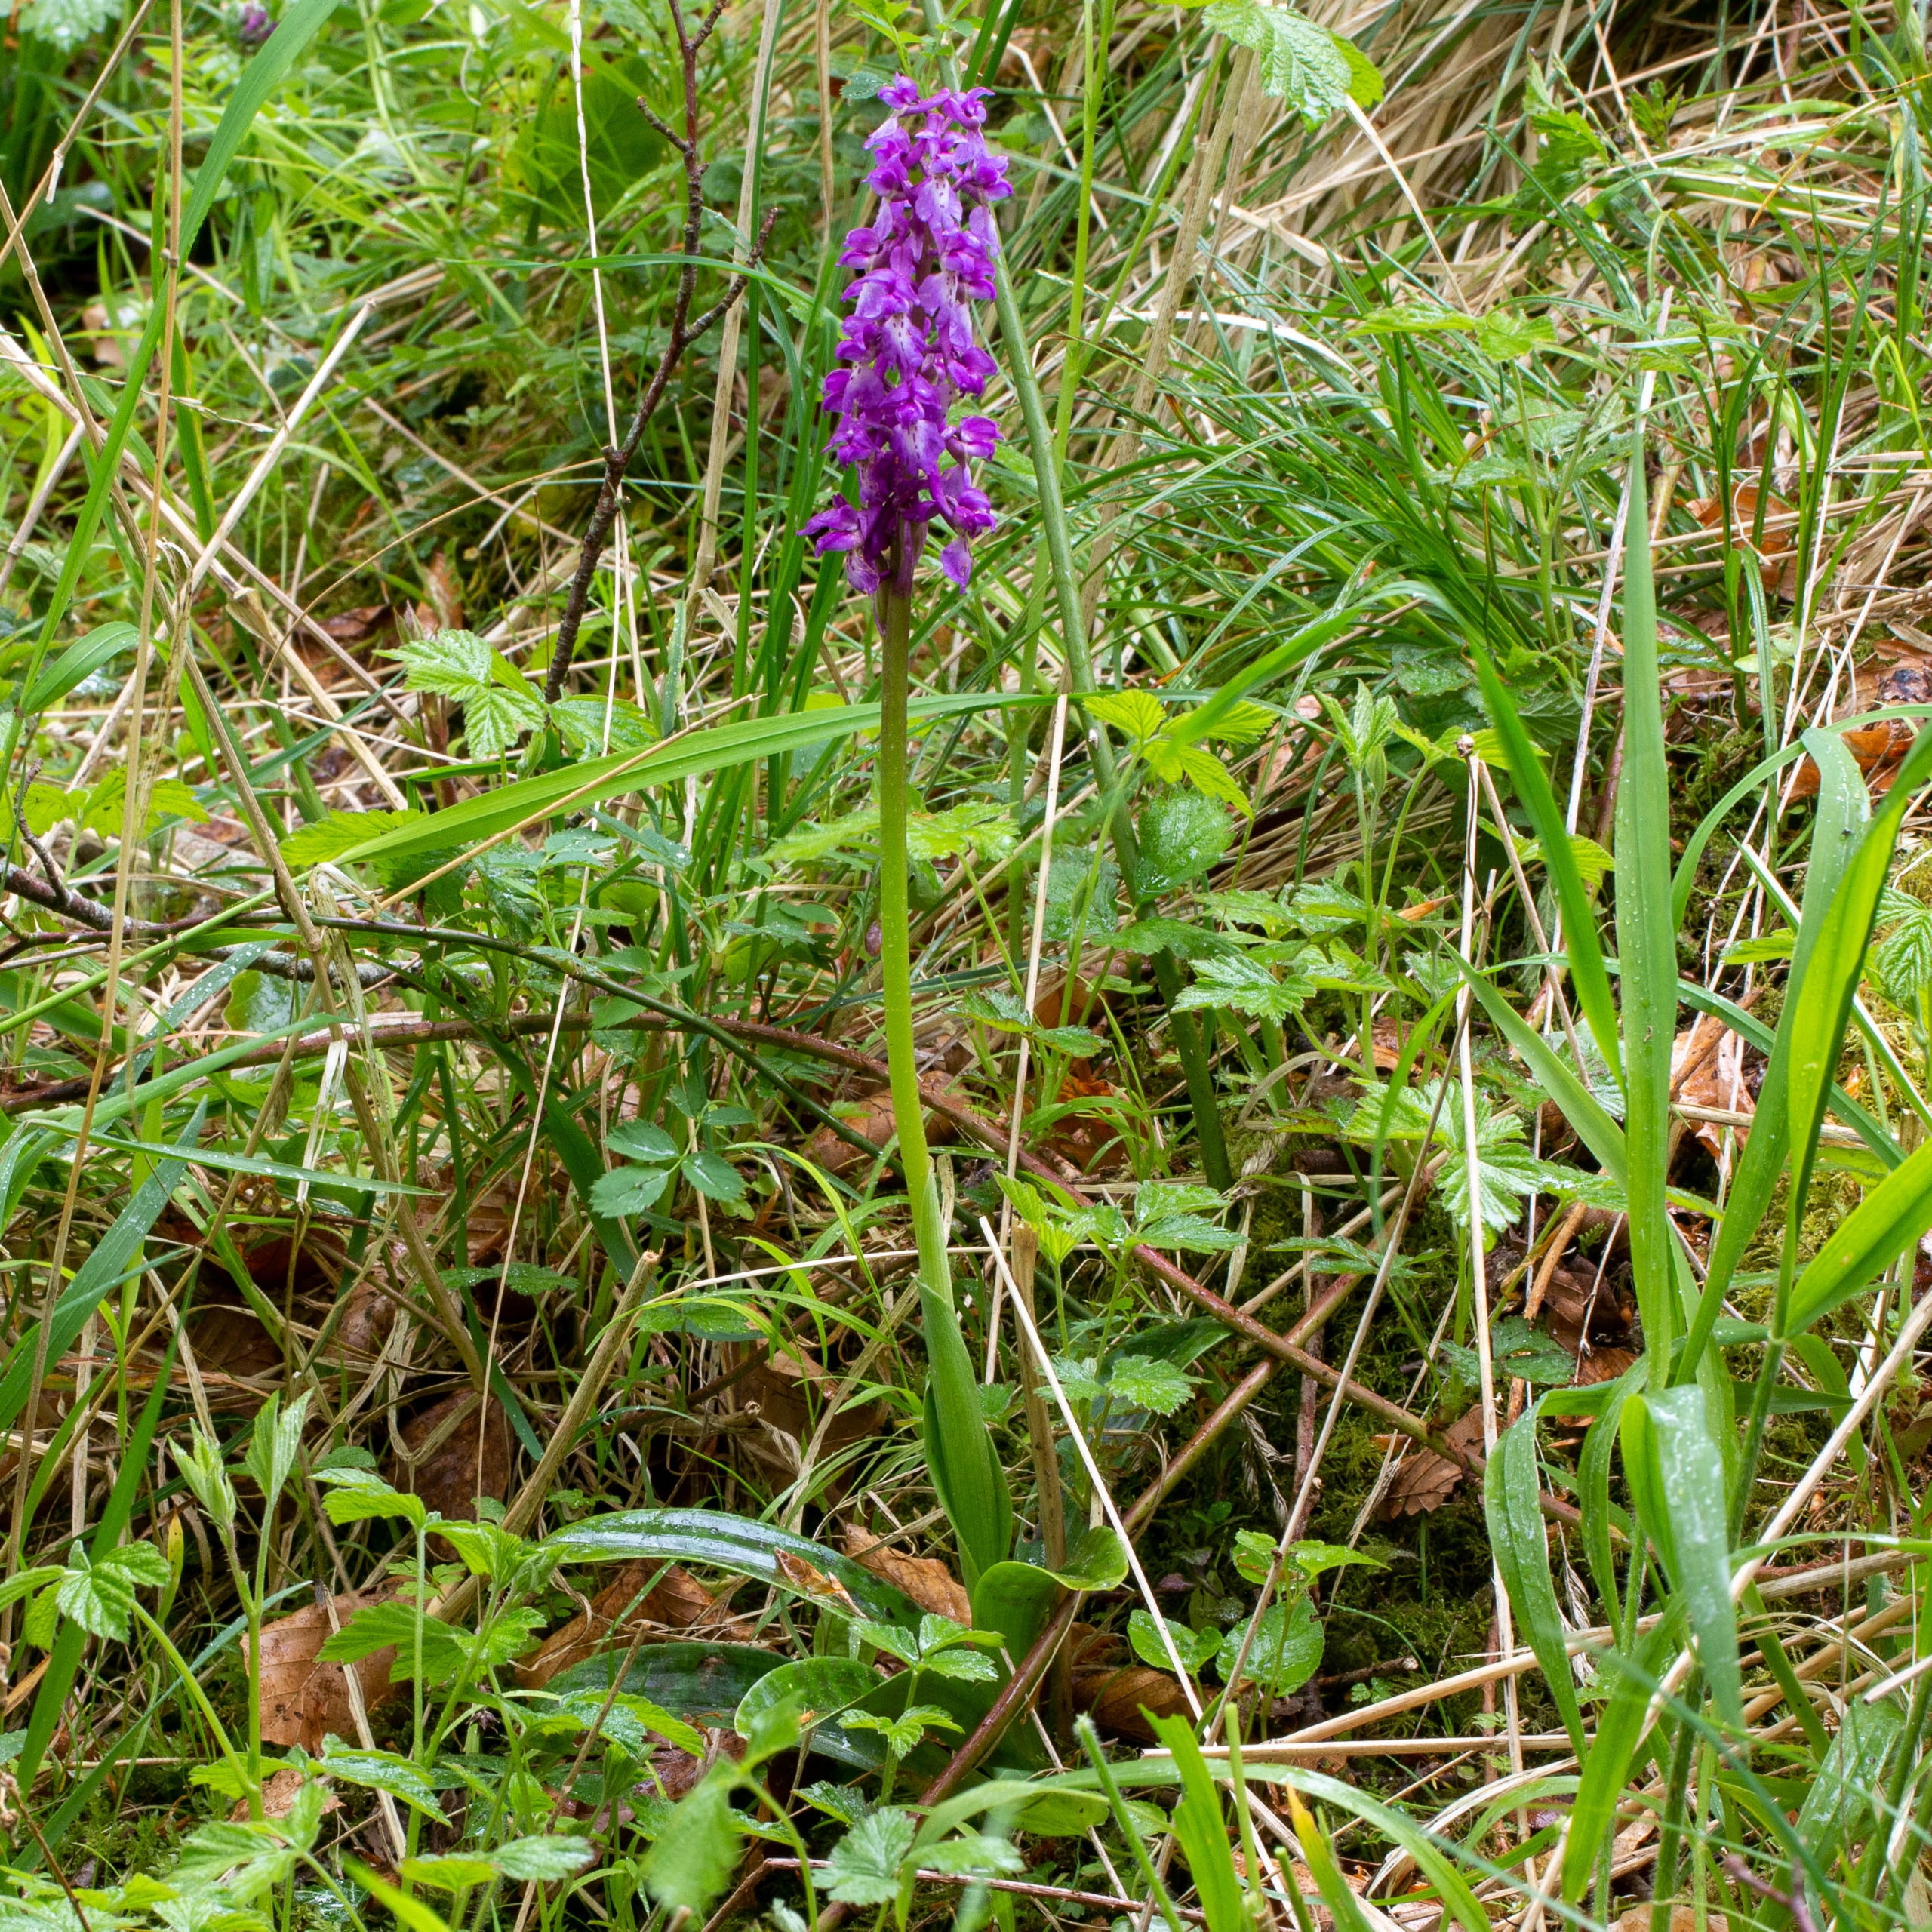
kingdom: Plantae
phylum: Tracheophyta
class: Liliopsida
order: Asparagales
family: Orchidaceae
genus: Orchis
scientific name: Orchis mascula
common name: Tyndakset gøgeurt
